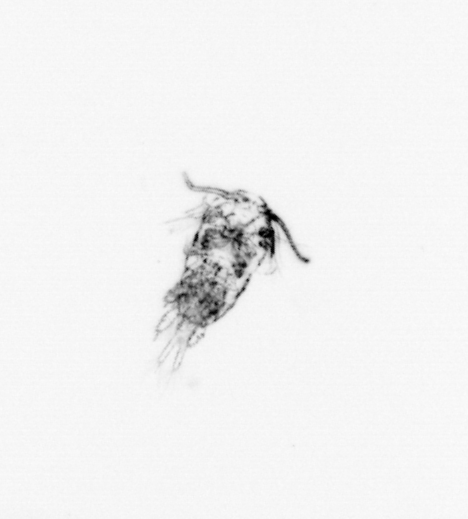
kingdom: Animalia
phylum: Arthropoda
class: Copepoda
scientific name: Copepoda
